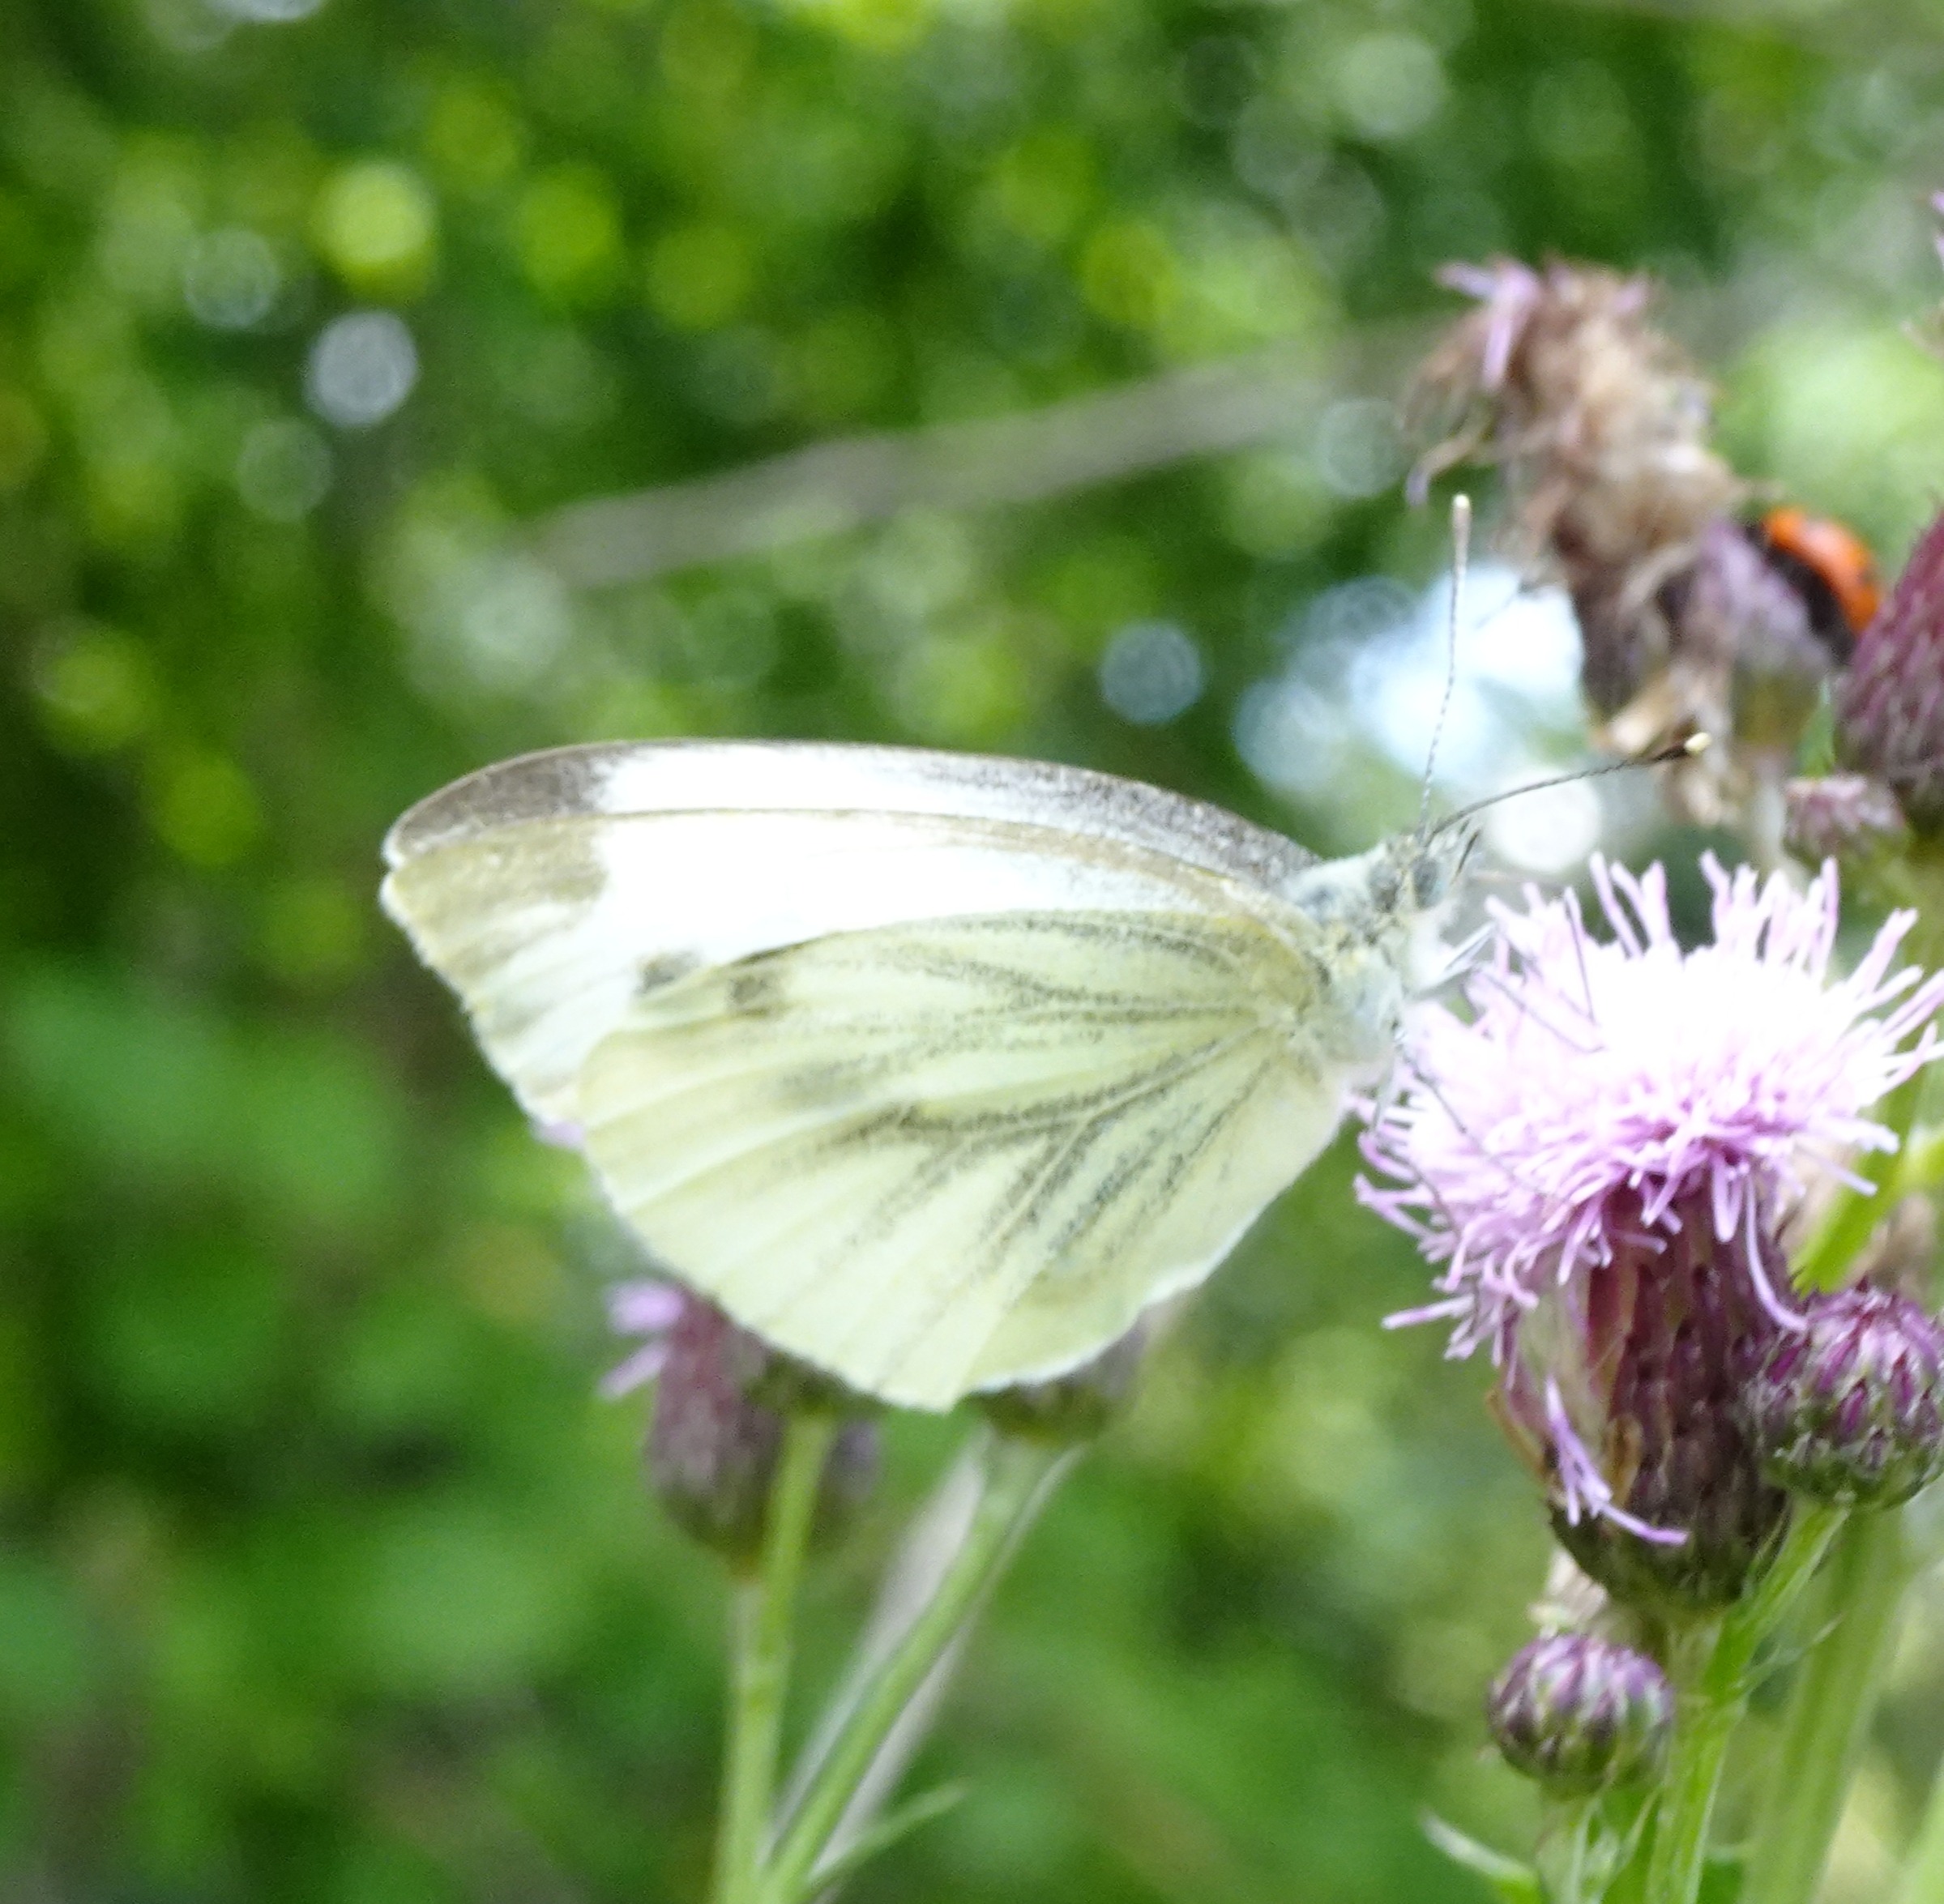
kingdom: Animalia
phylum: Arthropoda
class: Insecta
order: Lepidoptera
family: Pieridae
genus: Pieris
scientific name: Pieris napi
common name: Grønåret kålsommerfugl
